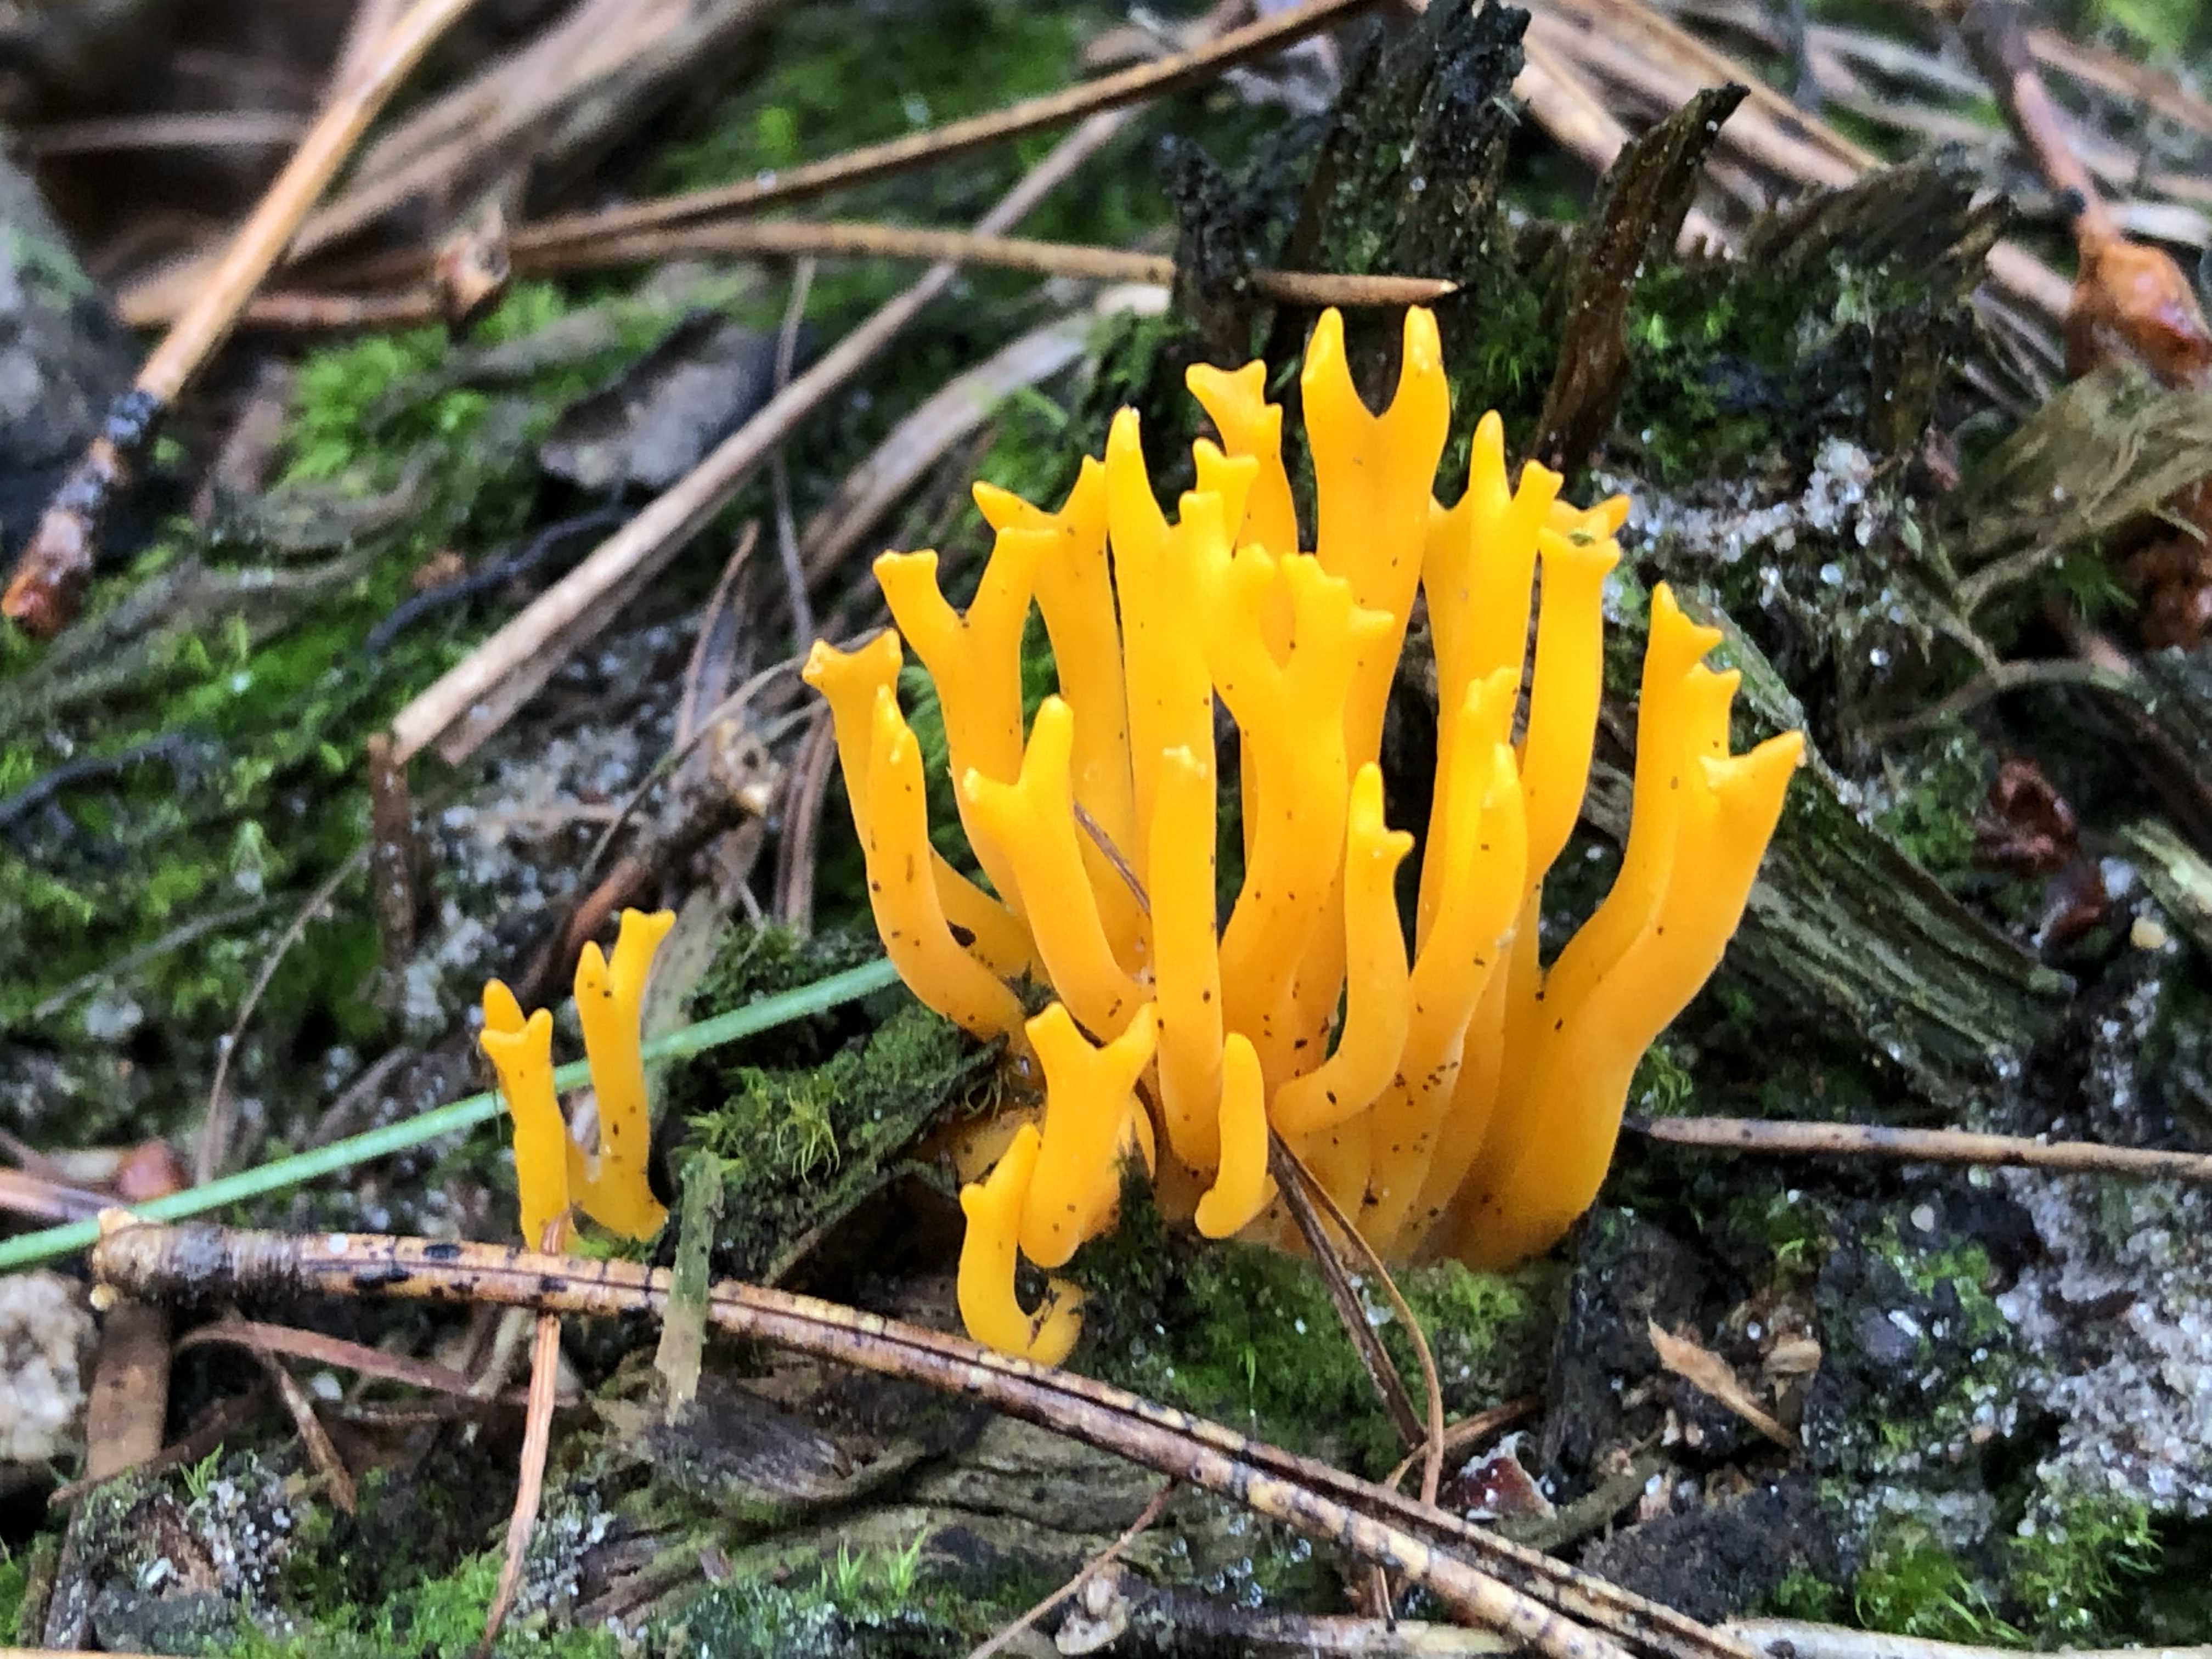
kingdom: Fungi
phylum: Basidiomycota
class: Dacrymycetes
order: Dacrymycetales
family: Dacrymycetaceae
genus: Calocera
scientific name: Calocera viscosa
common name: almindelig guldgaffel
